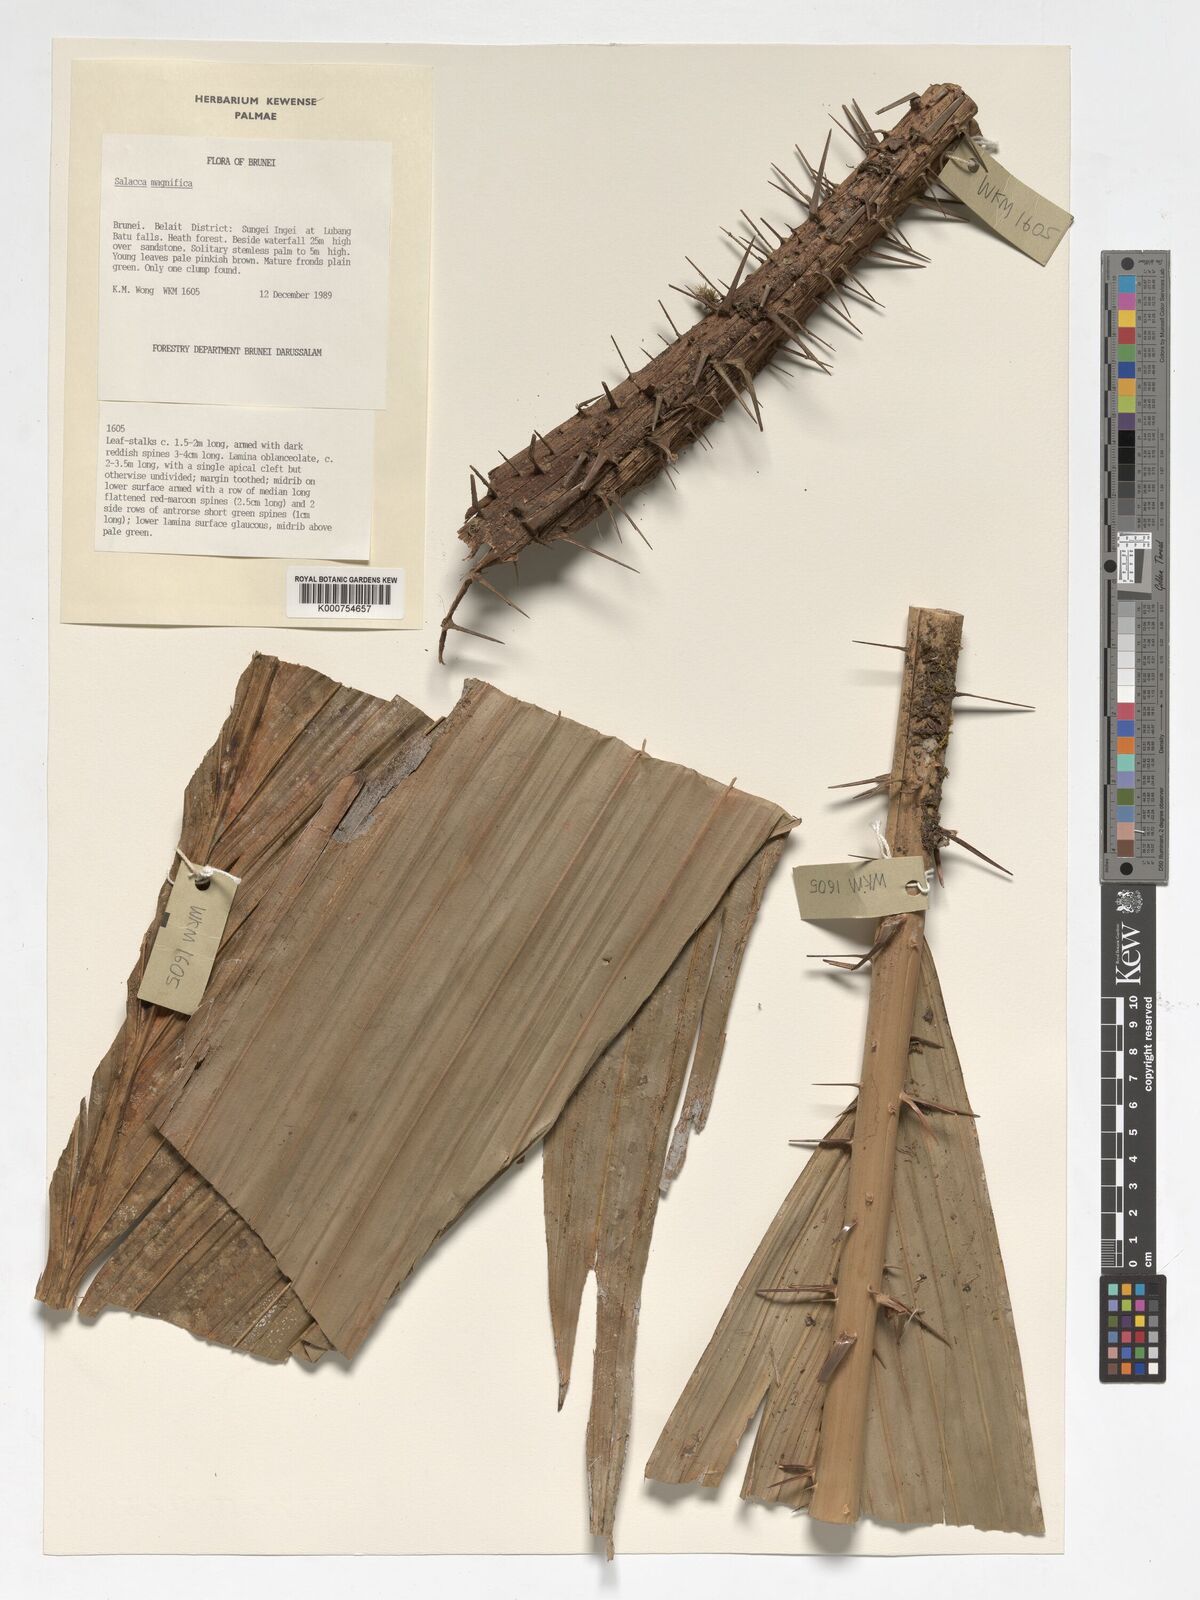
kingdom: Plantae
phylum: Tracheophyta
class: Liliopsida
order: Arecales
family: Arecaceae
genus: Salacca
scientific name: Salacca magnifica
